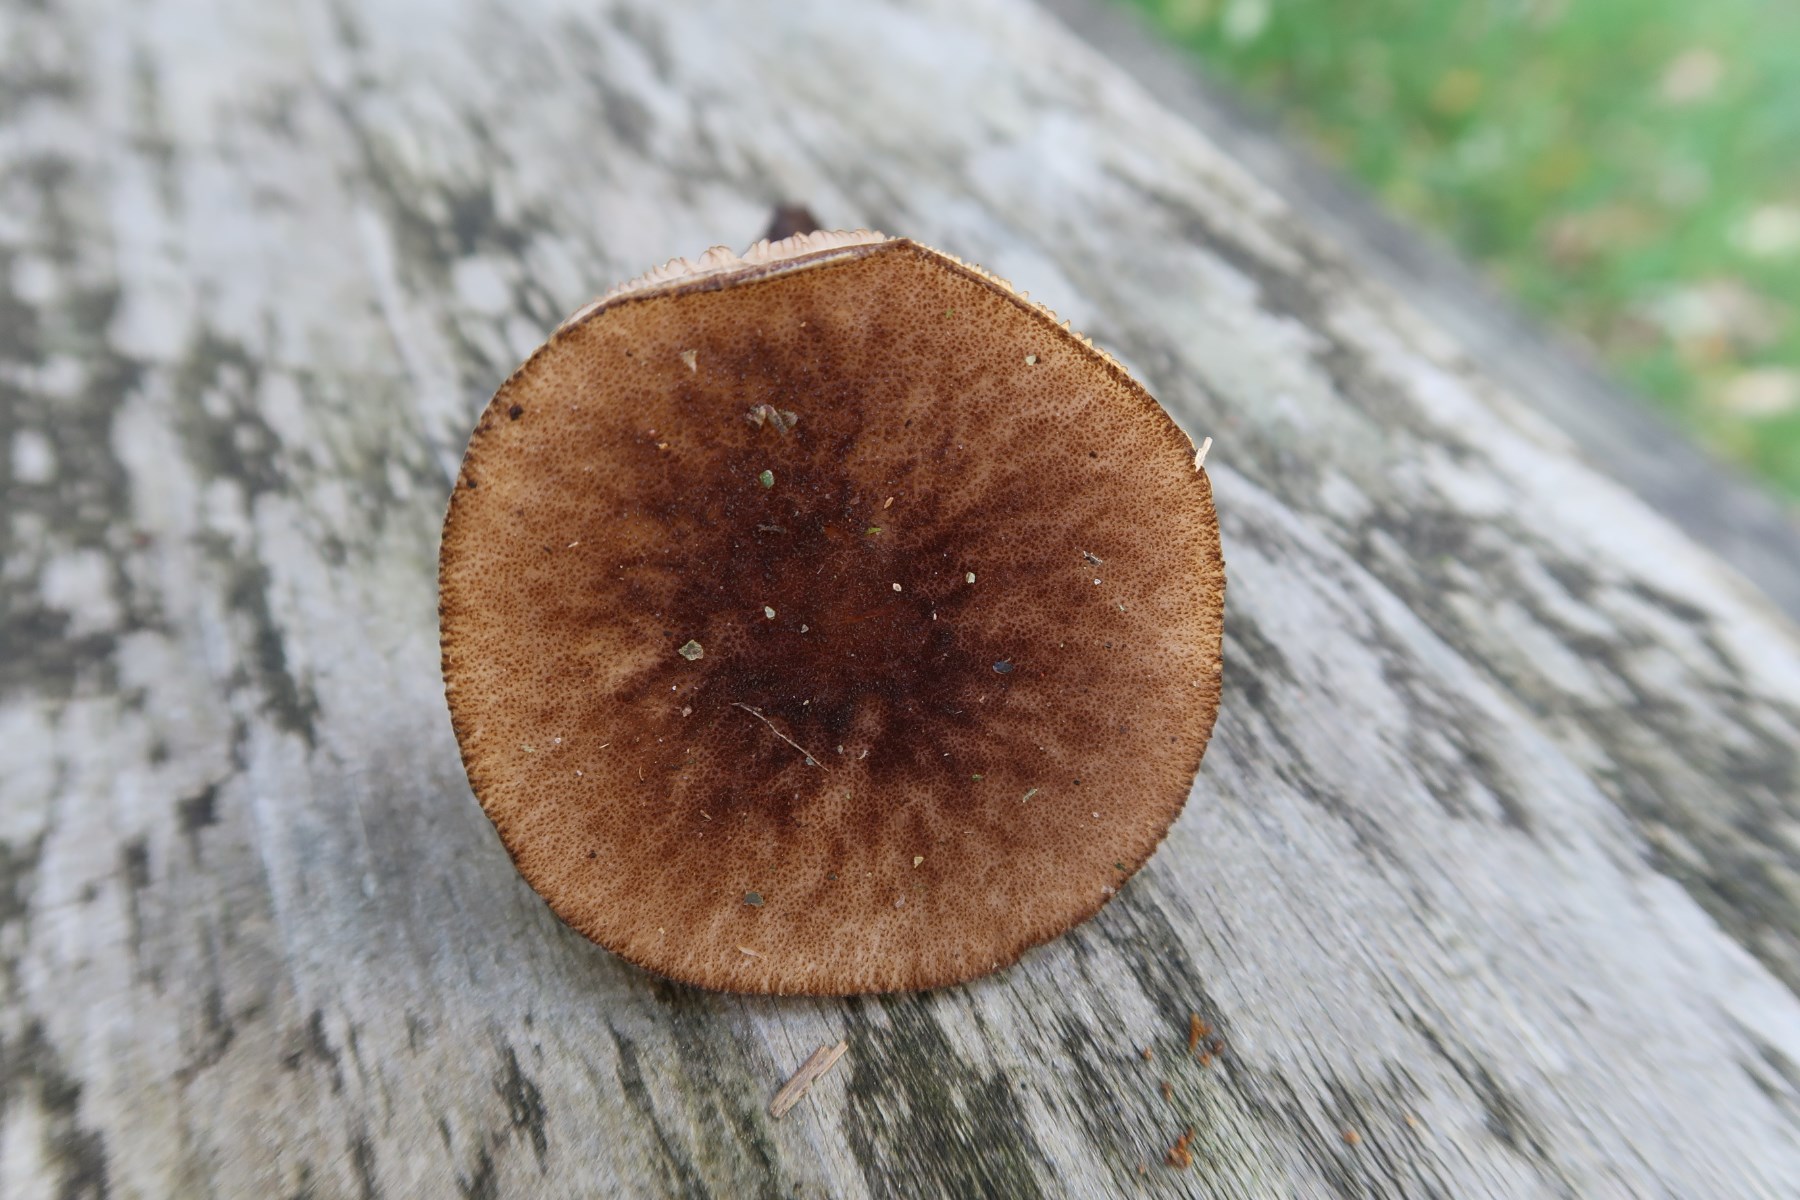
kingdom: Fungi
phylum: Basidiomycota
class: Agaricomycetes
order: Agaricales
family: Pluteaceae
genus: Pluteus
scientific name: Pluteus umbrosus
